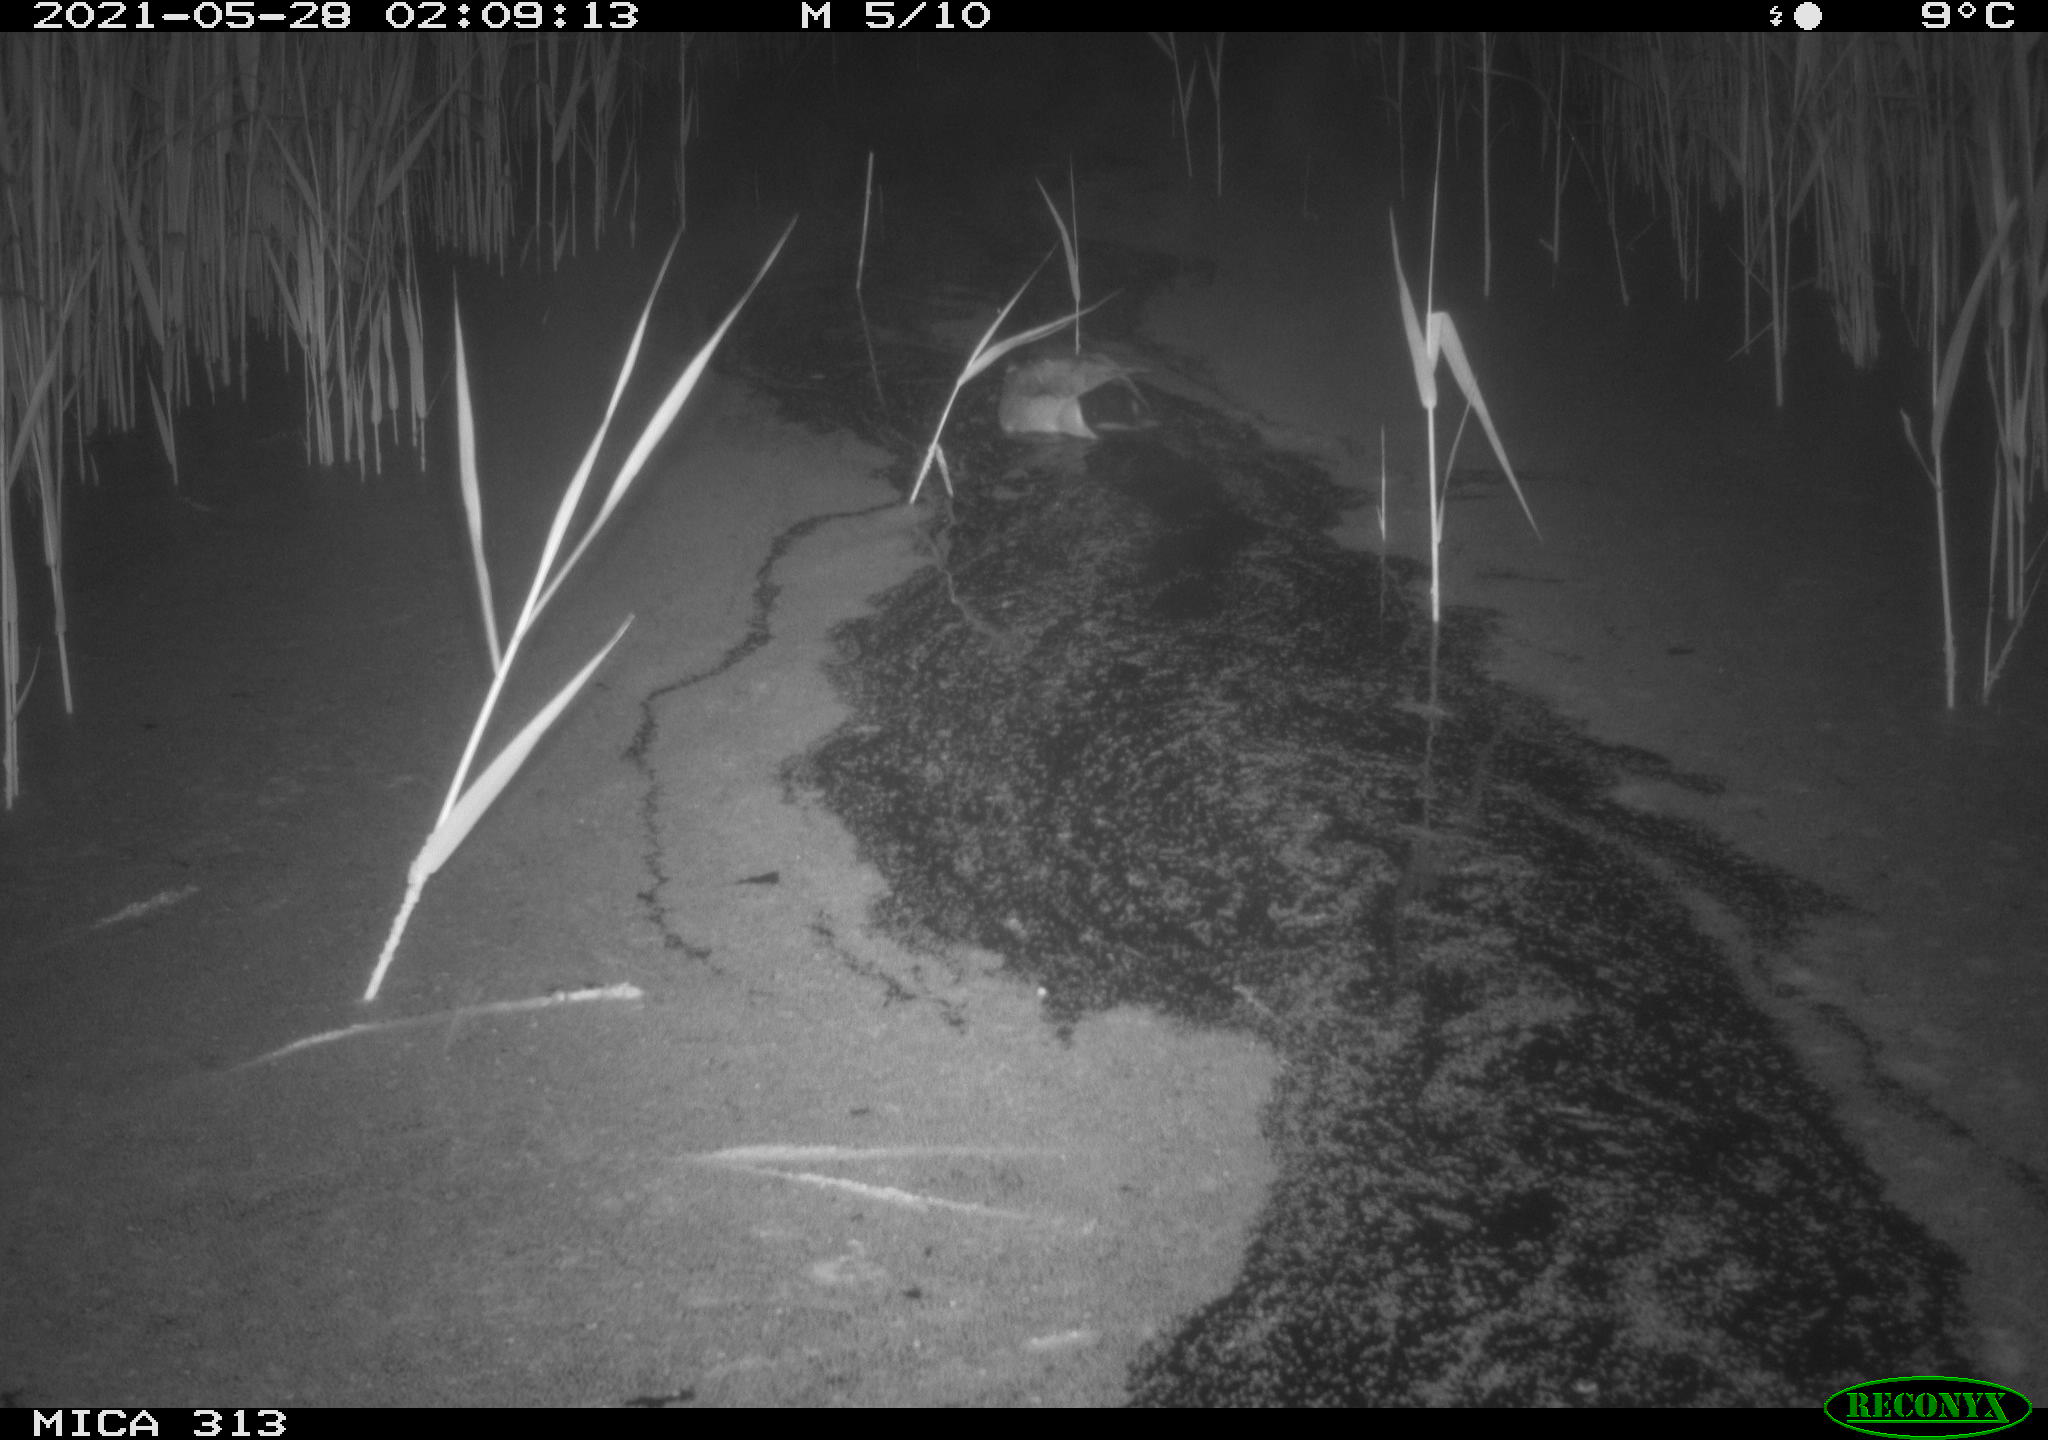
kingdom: Animalia
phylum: Chordata
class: Aves
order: Anseriformes
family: Anatidae
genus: Anas
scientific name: Anas platyrhynchos
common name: Mallard
